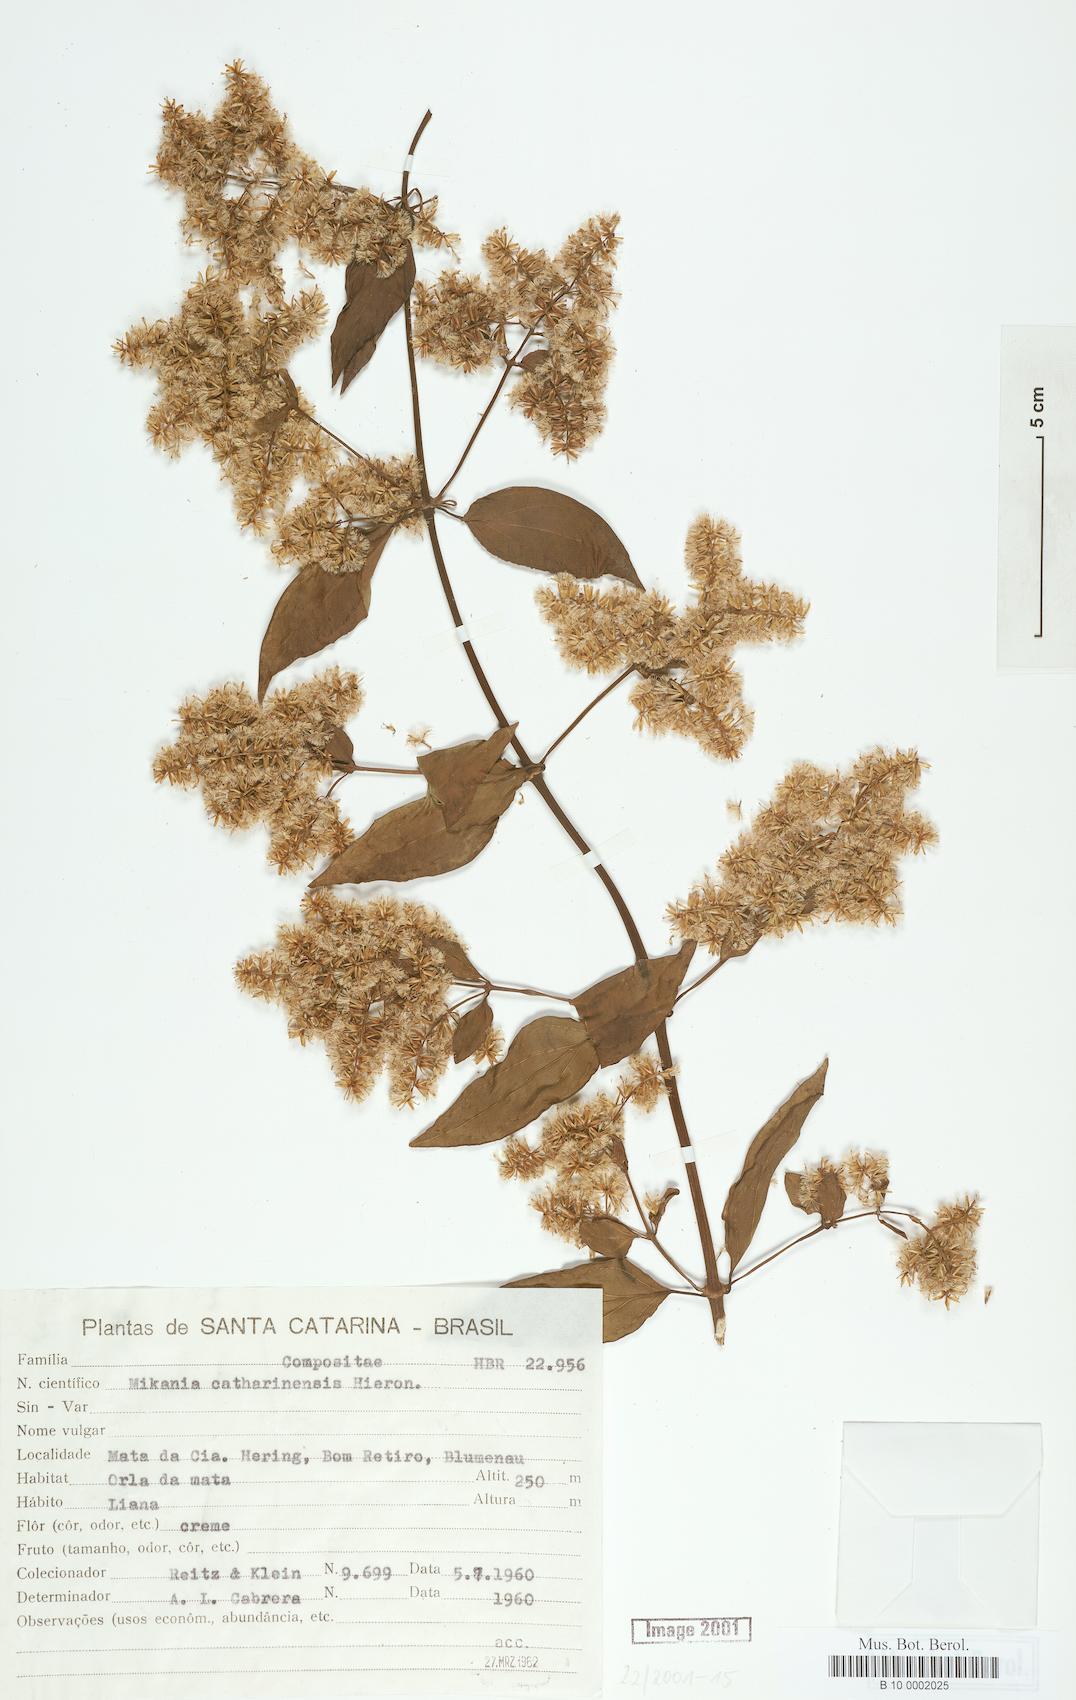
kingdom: Plantae
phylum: Tracheophyta
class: Magnoliopsida
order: Asterales
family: Asteraceae
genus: Mikania
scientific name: Mikania lundiana
